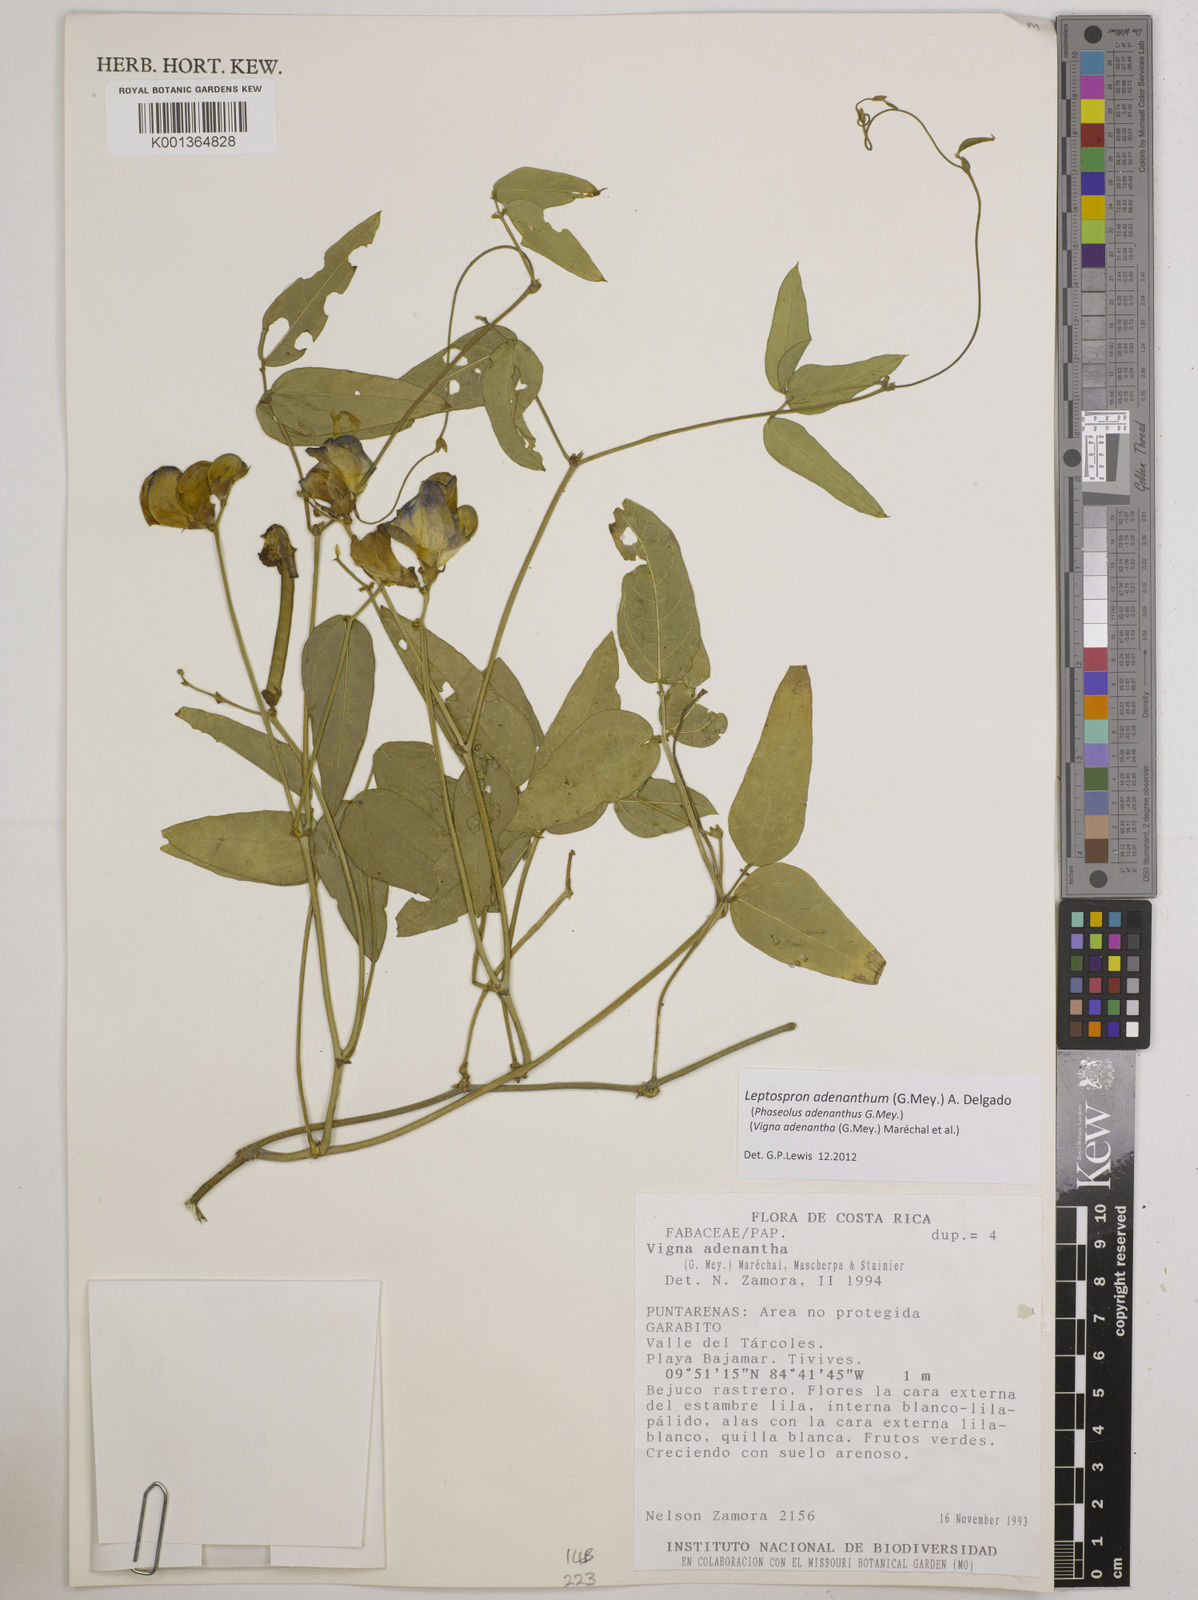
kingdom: Plantae
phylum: Tracheophyta
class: Magnoliopsida
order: Fabales
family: Fabaceae
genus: Leptospron
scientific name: Leptospron adenanthum
